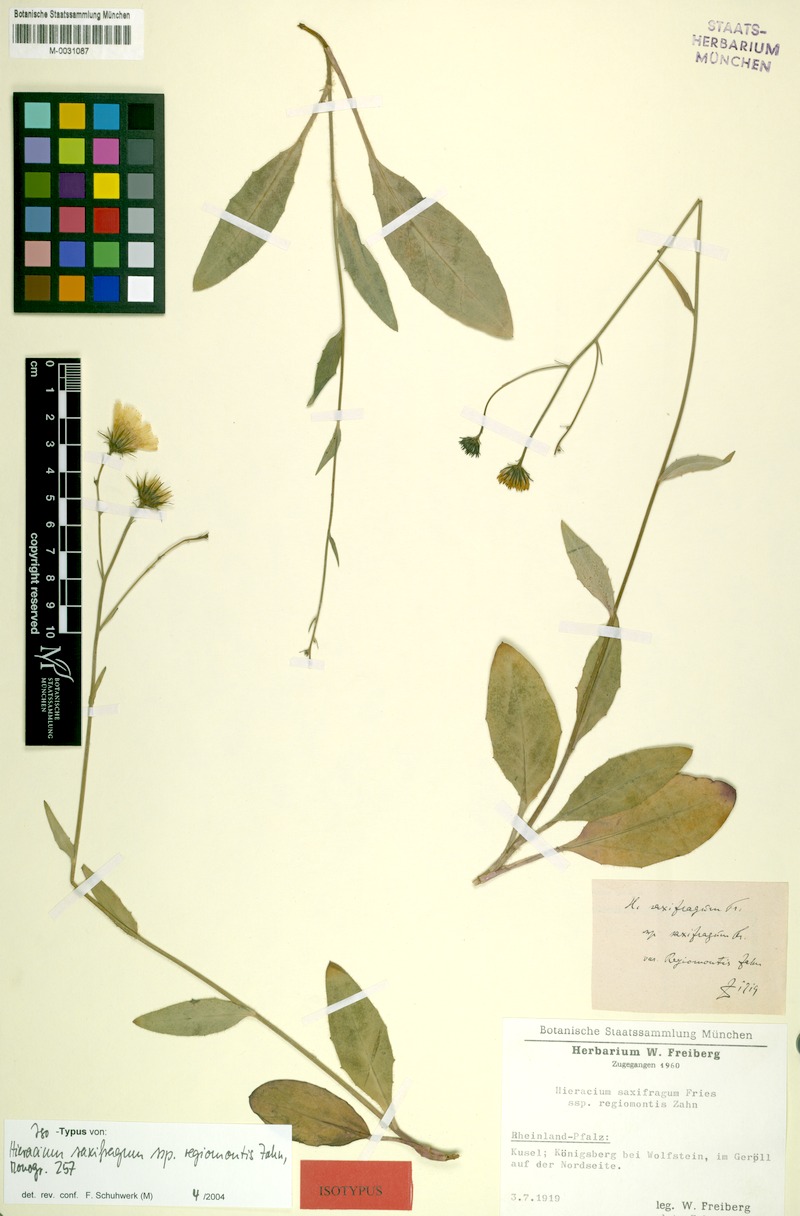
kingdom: Plantae
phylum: Tracheophyta
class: Magnoliopsida
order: Asterales
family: Asteraceae
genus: Hieracium
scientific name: Hieracium saxifragum
